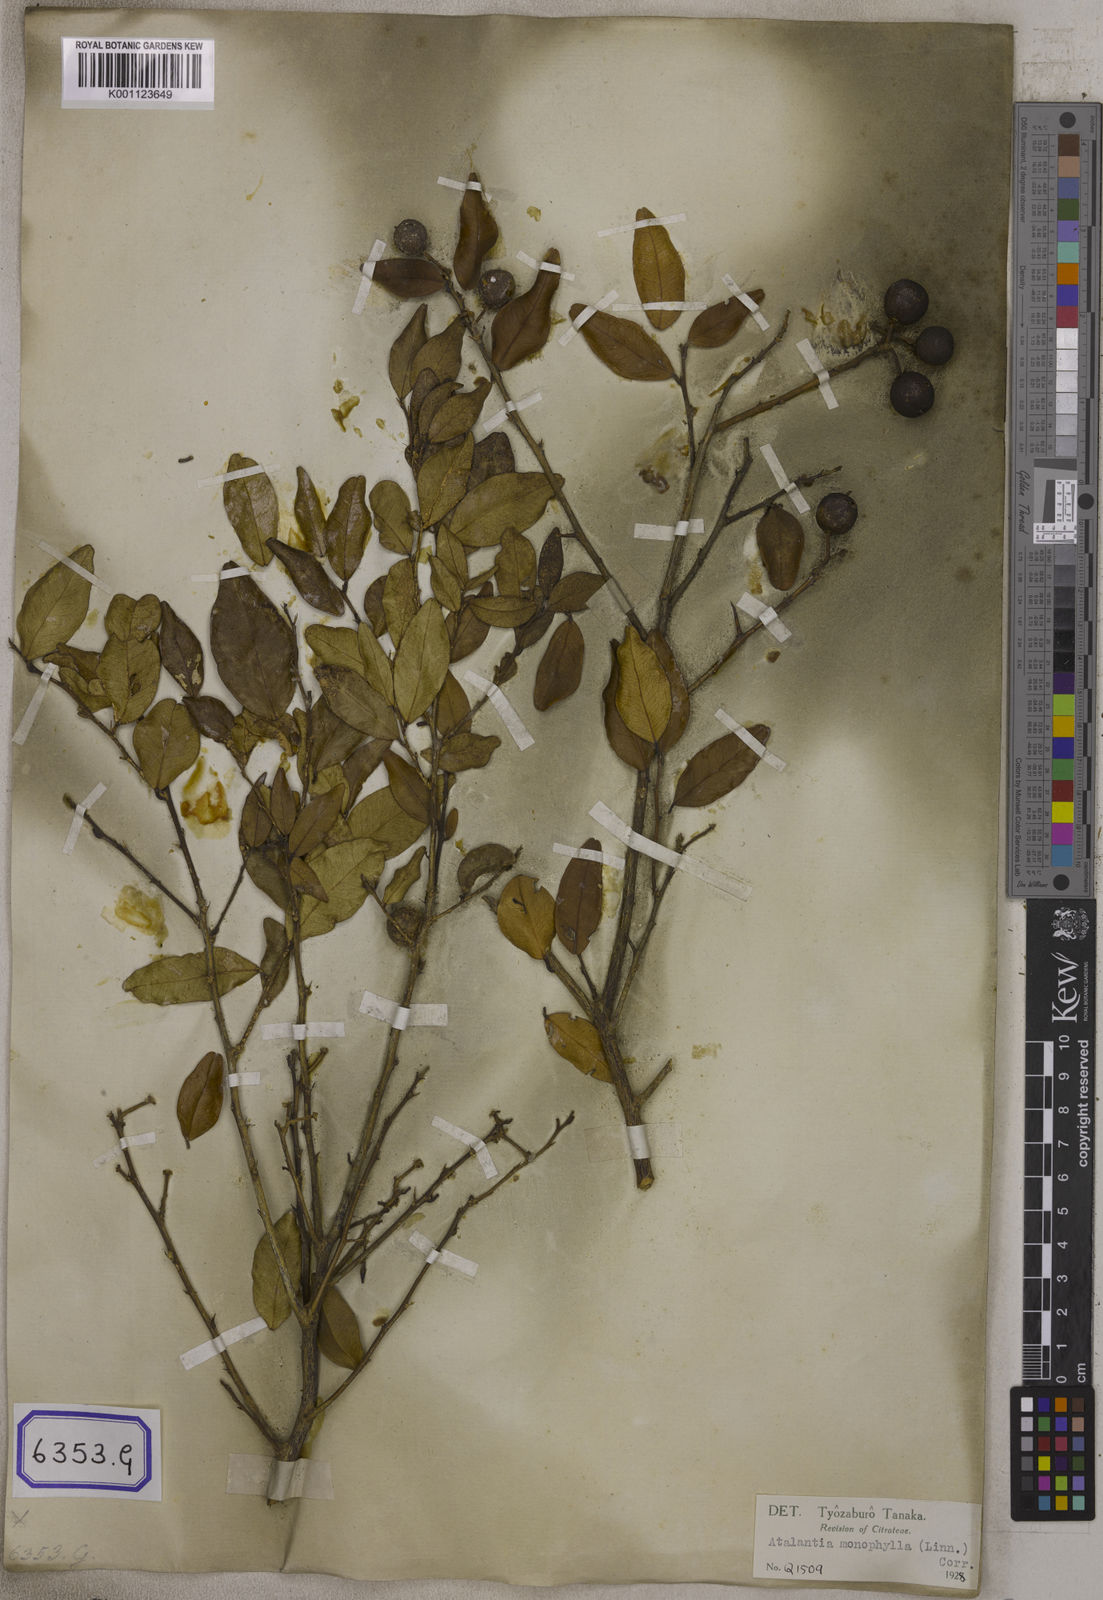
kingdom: Plantae
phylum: Tracheophyta
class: Magnoliopsida
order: Sapindales
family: Rutaceae
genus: Atalantia
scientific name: Atalantia monophylla
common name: Indian-atalantia
